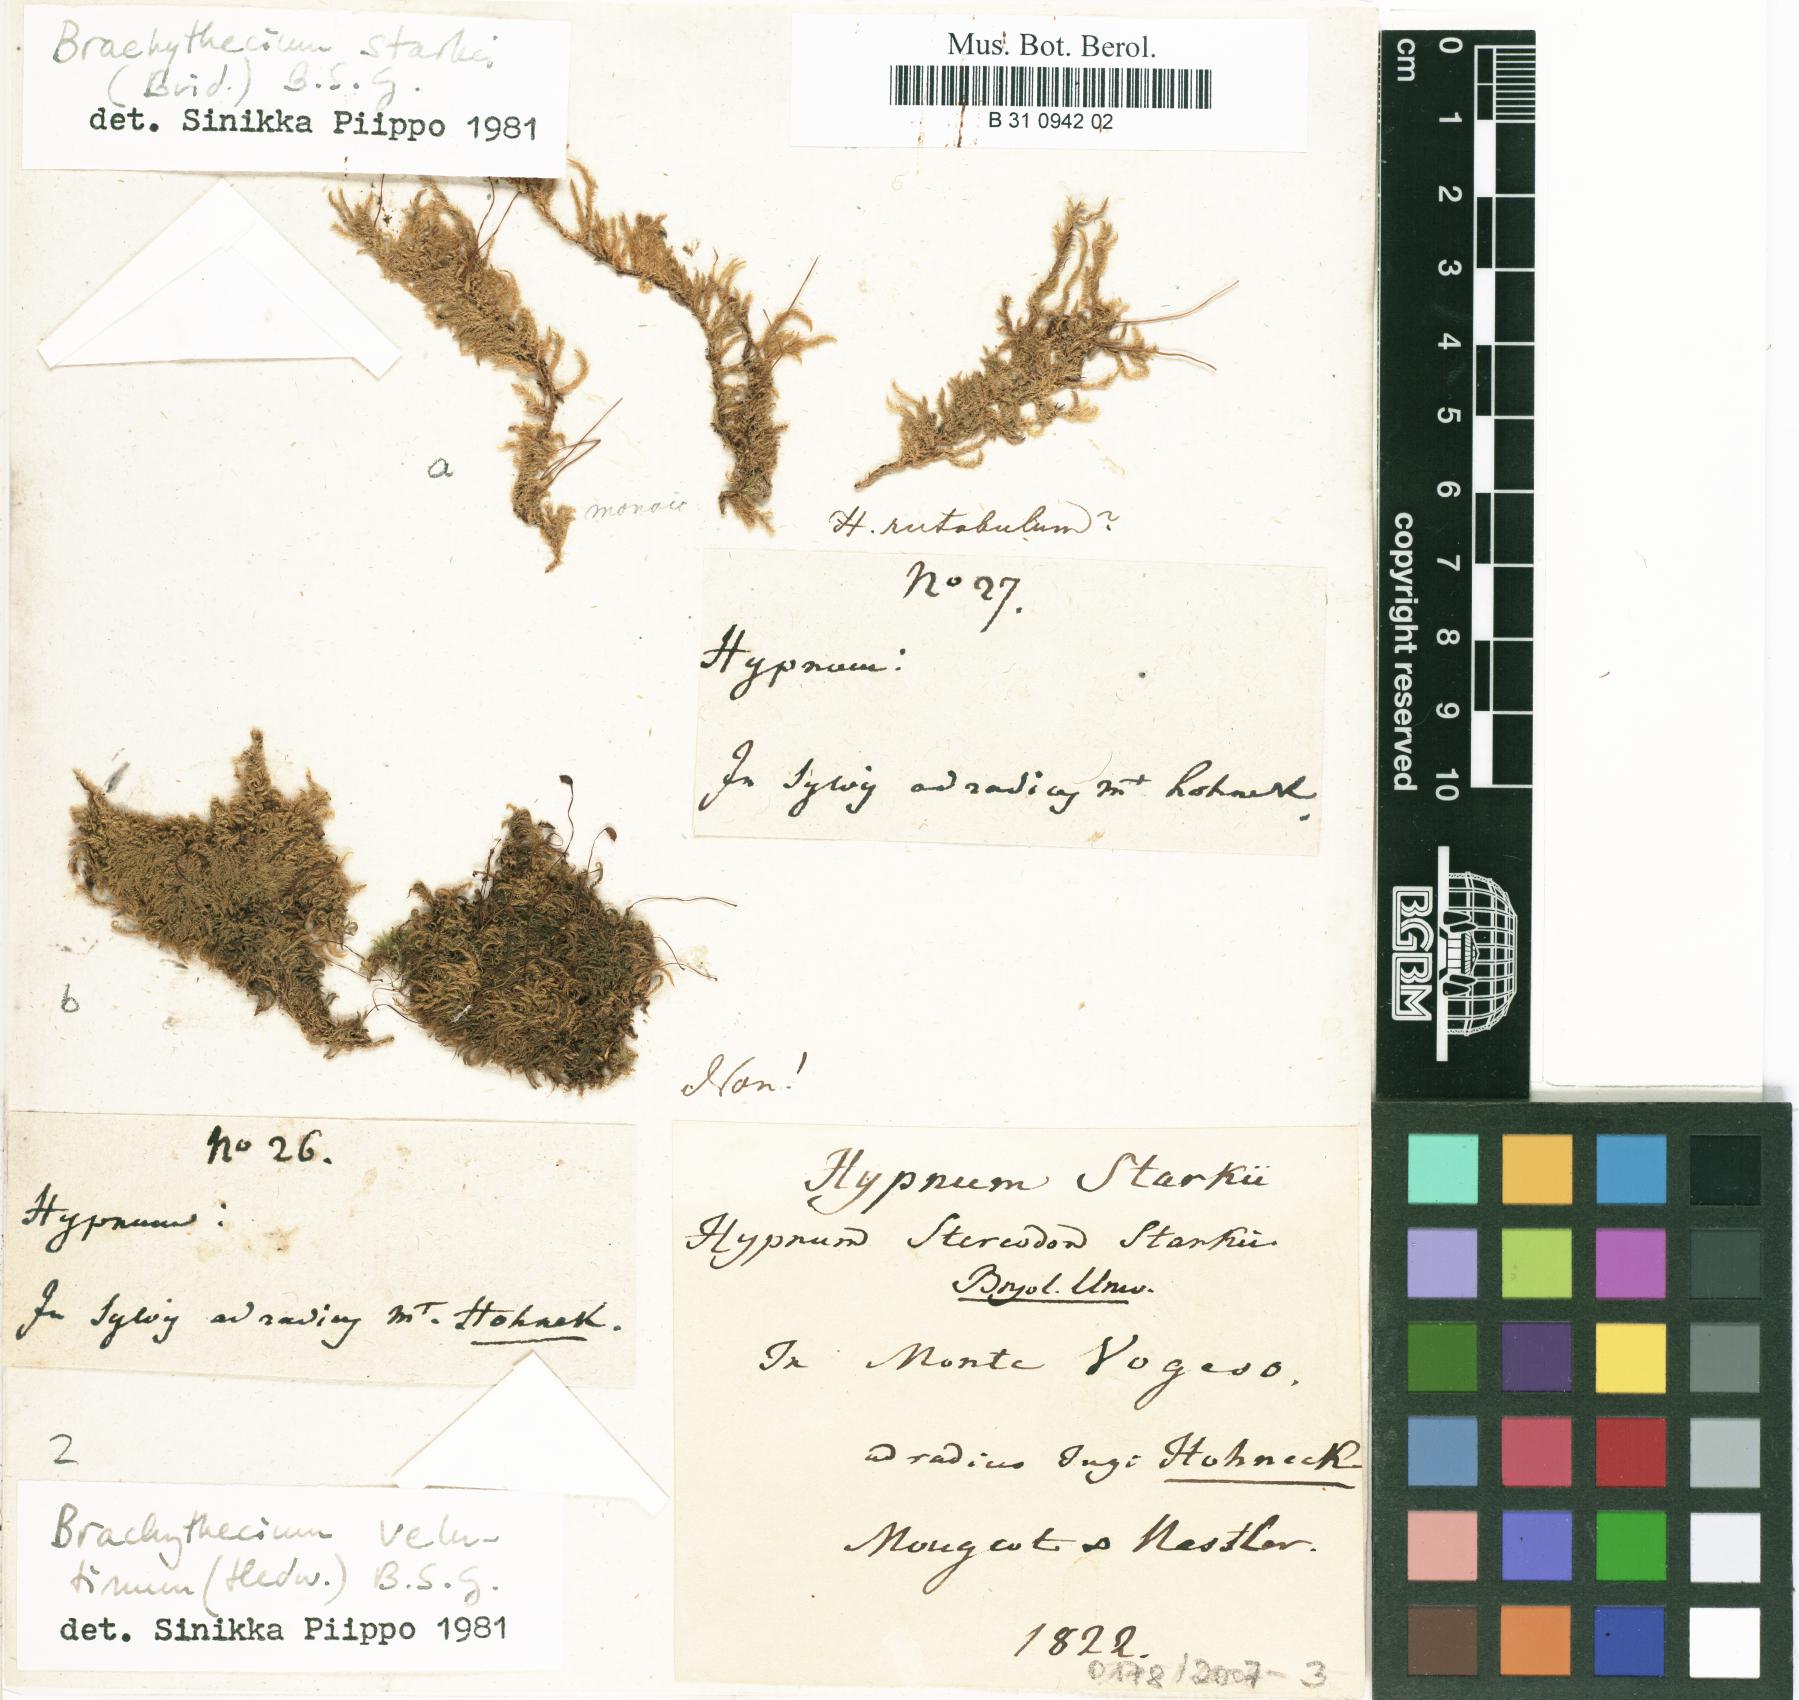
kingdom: Plantae
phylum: Bryophyta
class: Bryopsida
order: Hypnales
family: Brachytheciaceae
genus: Sciuro-hypnum
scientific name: Sciuro-hypnum starkei
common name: Starke's feather-moss
